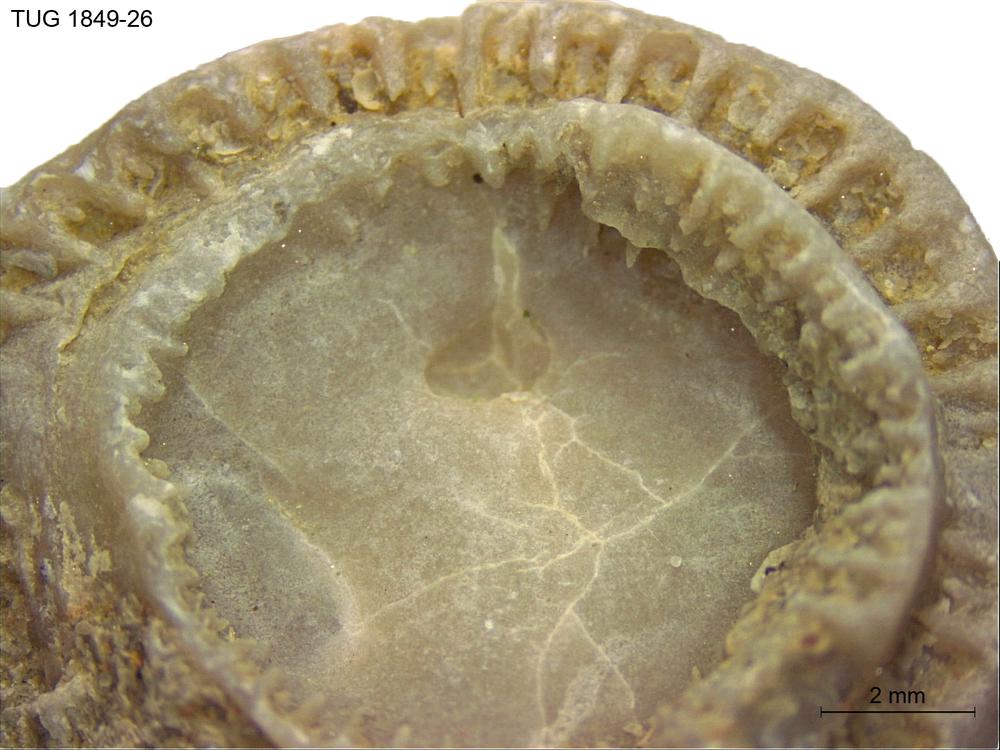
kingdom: Animalia
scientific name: Animalia
